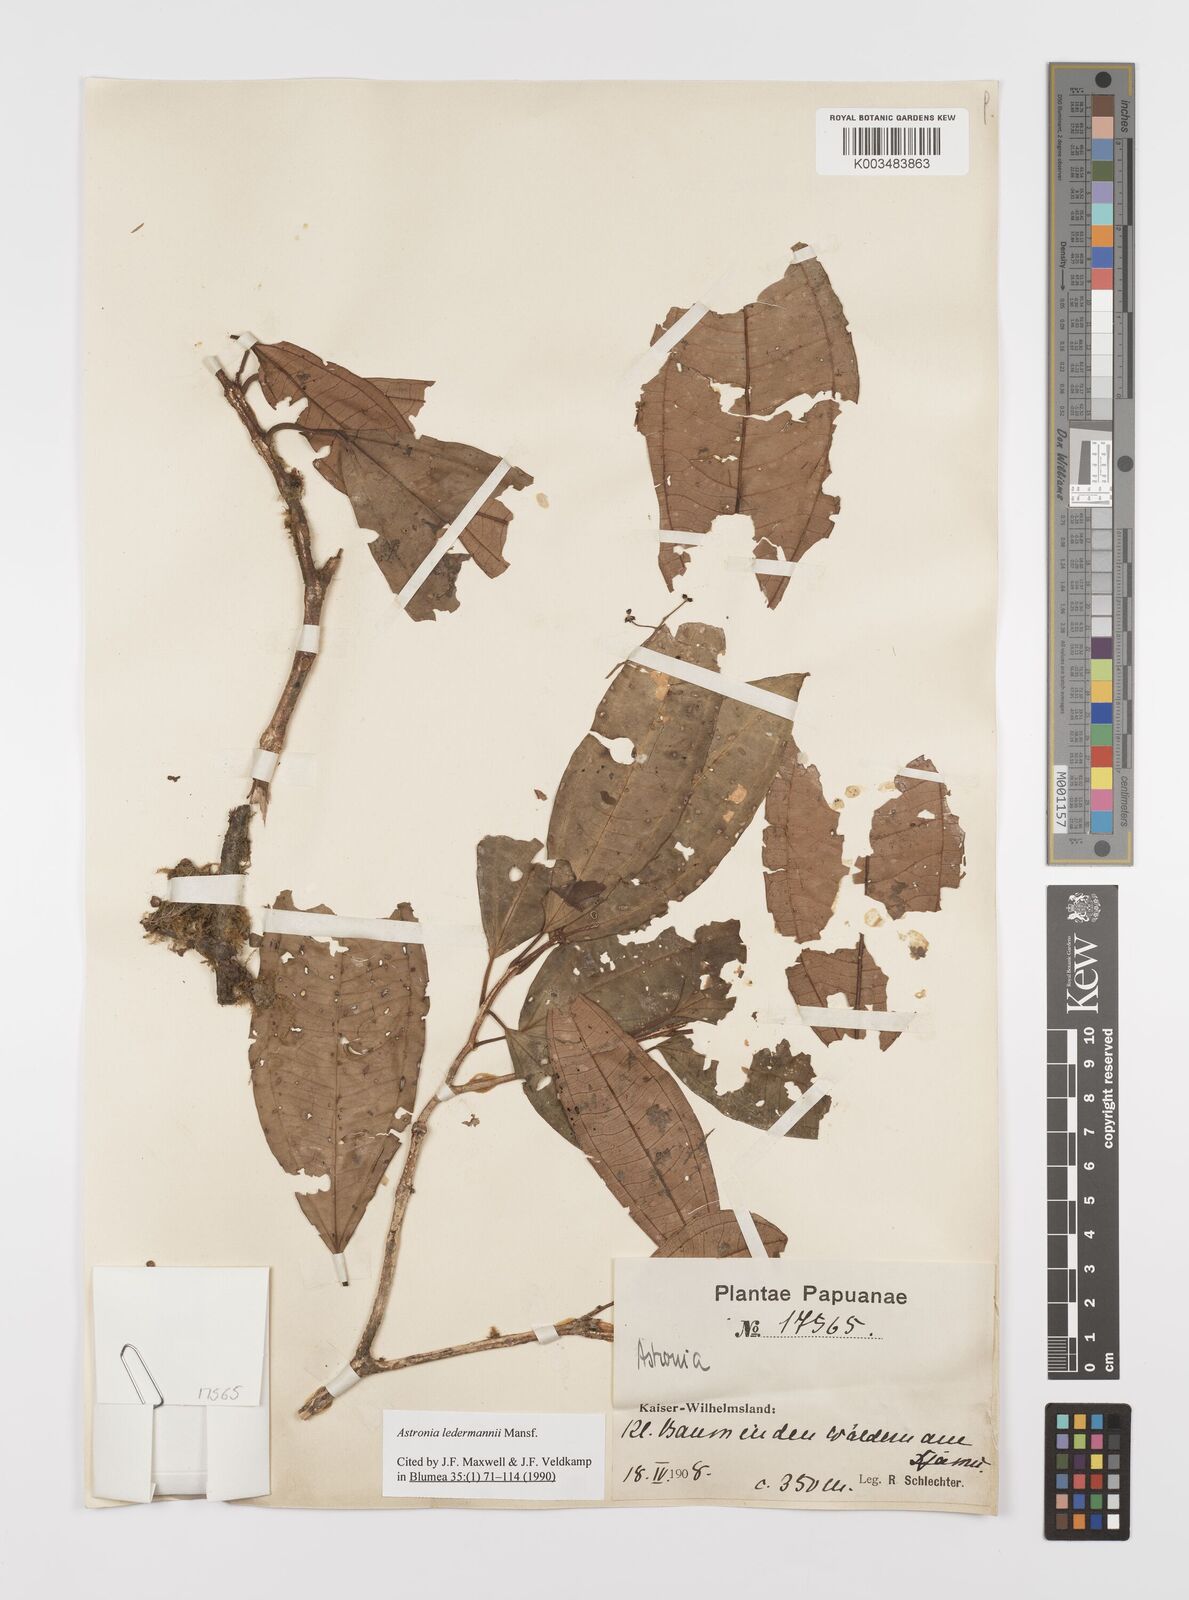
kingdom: Plantae
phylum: Tracheophyta
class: Magnoliopsida
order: Myrtales
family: Melastomataceae
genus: Astronia
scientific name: Astronia ledermannii
